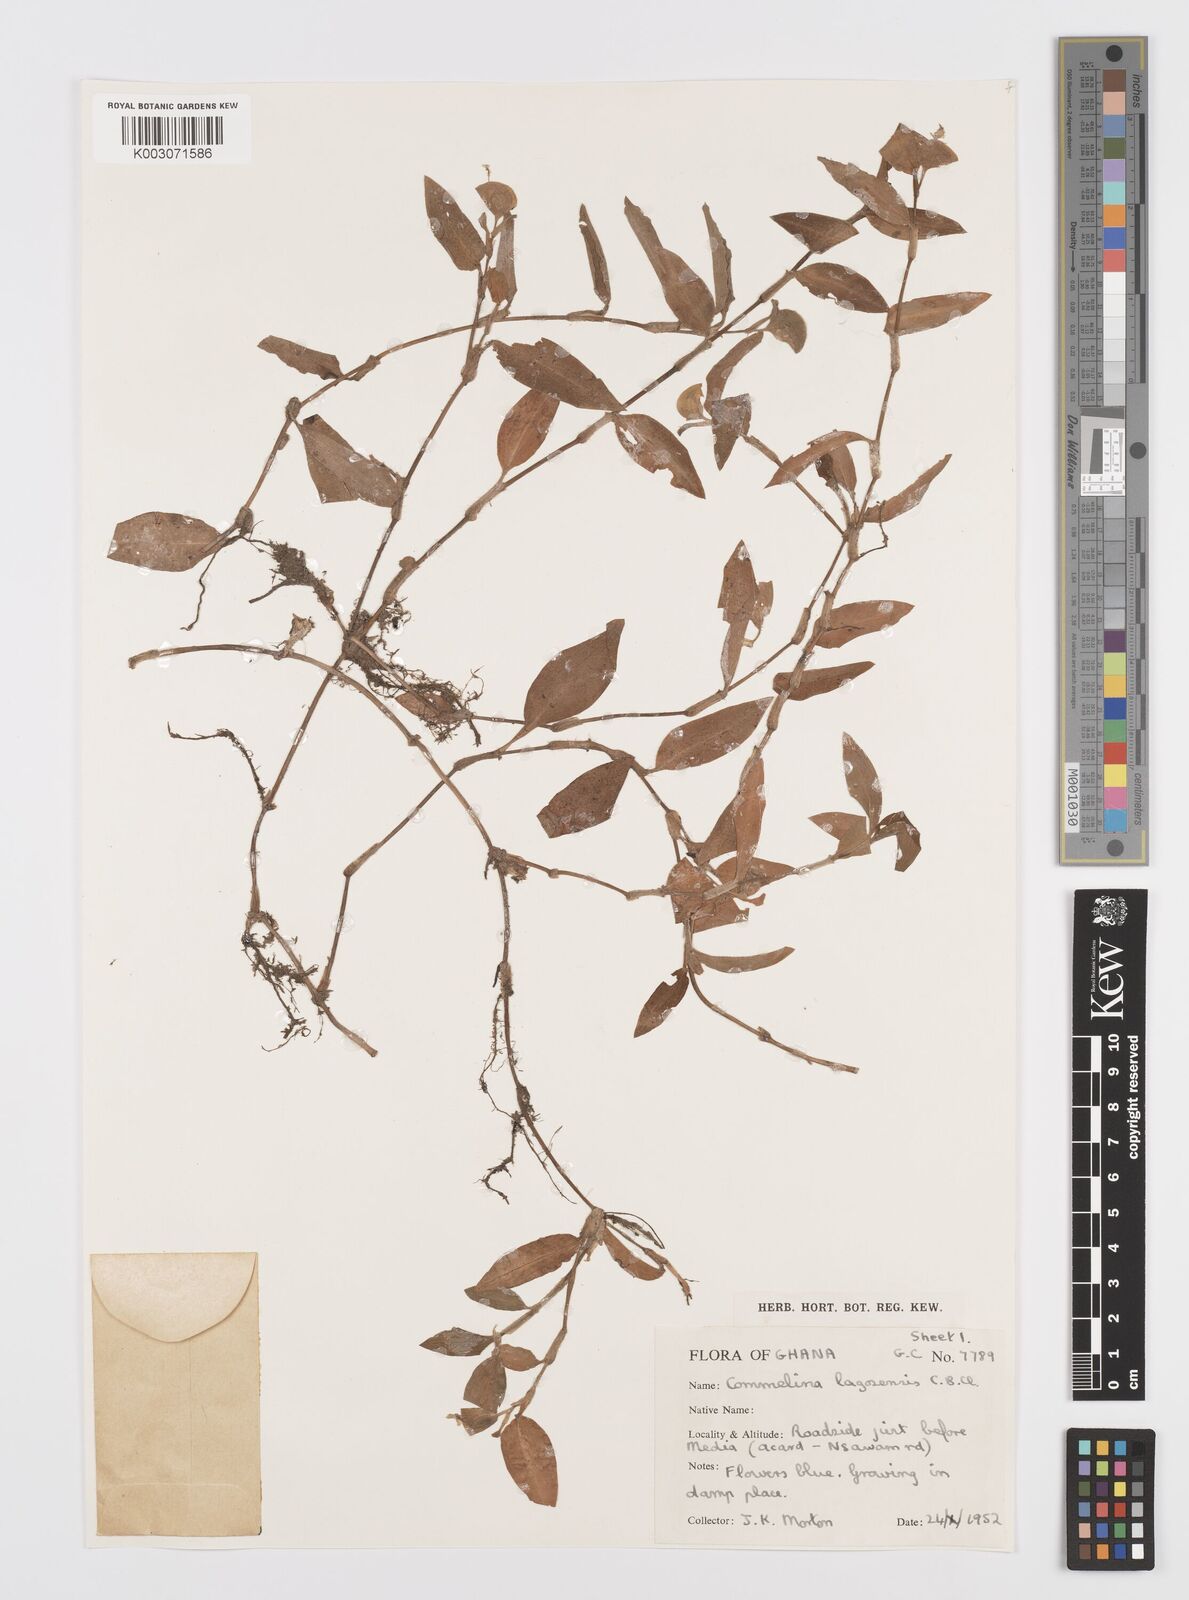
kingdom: Plantae
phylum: Tracheophyta
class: Liliopsida
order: Commelinales
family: Commelinaceae
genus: Commelina
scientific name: Commelina bracteosa
